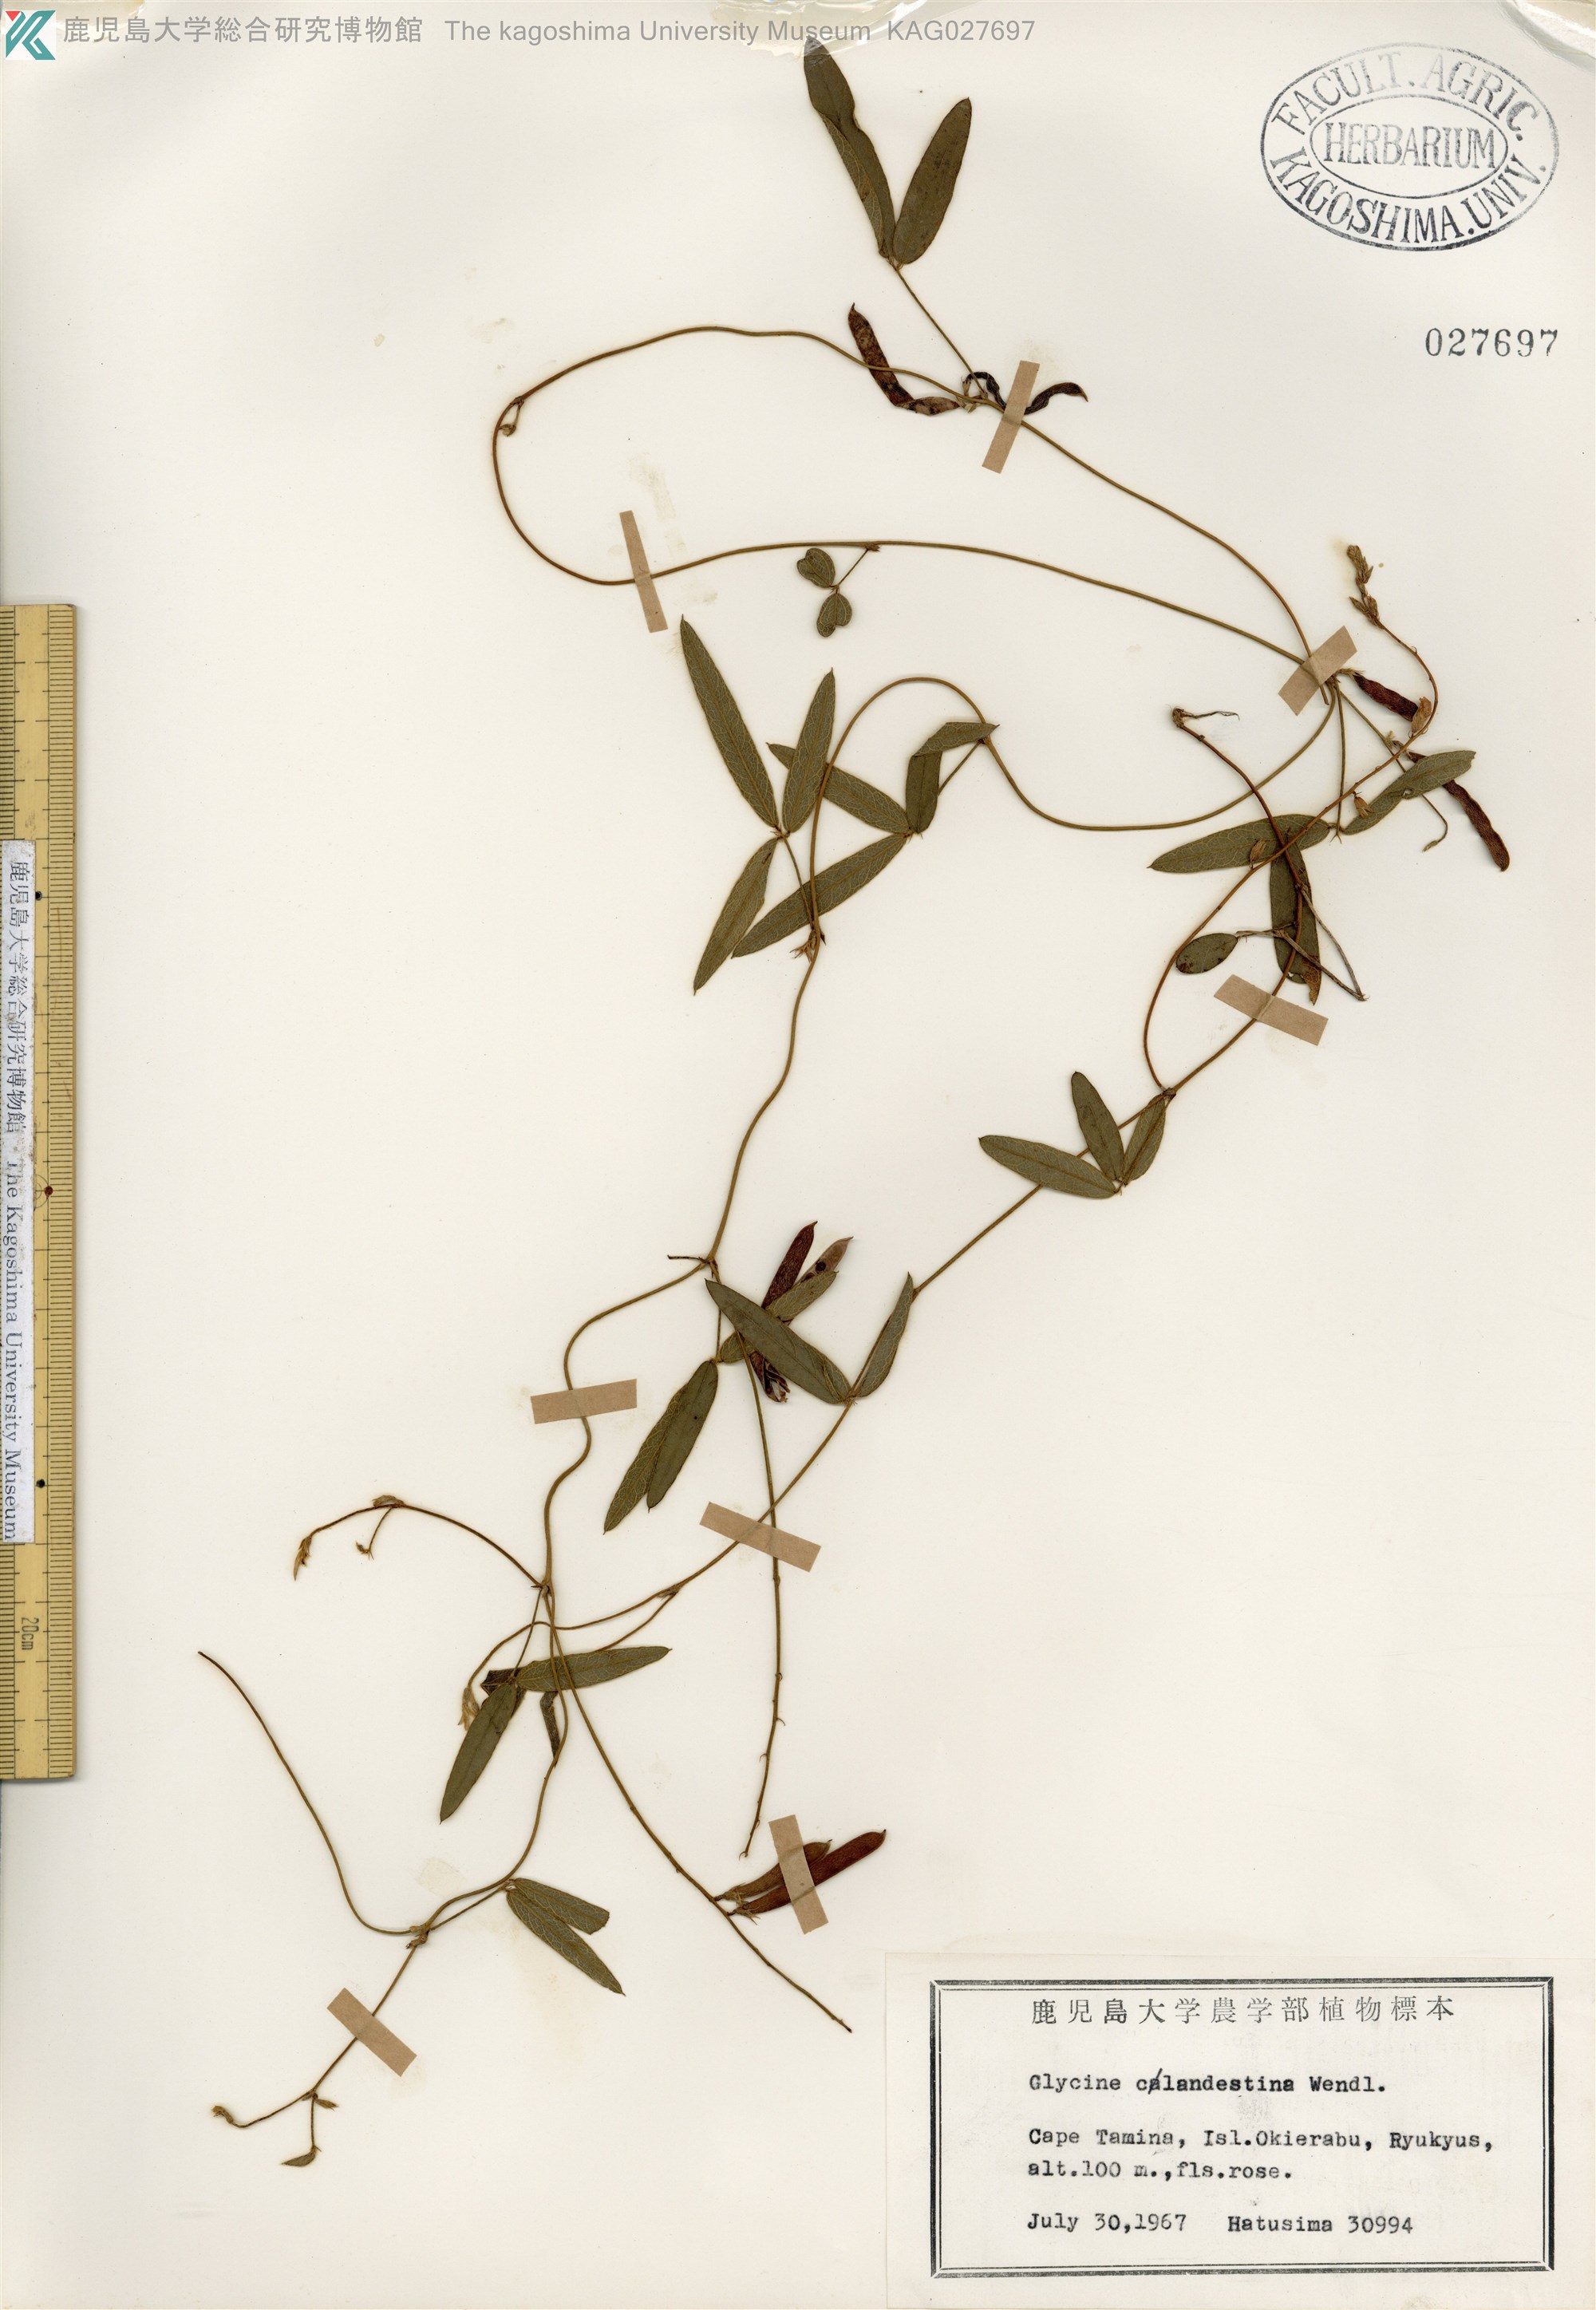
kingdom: Plantae
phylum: Tracheophyta
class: Magnoliopsida
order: Fabales
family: Fabaceae
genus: Glycine
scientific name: Glycine tabacina
